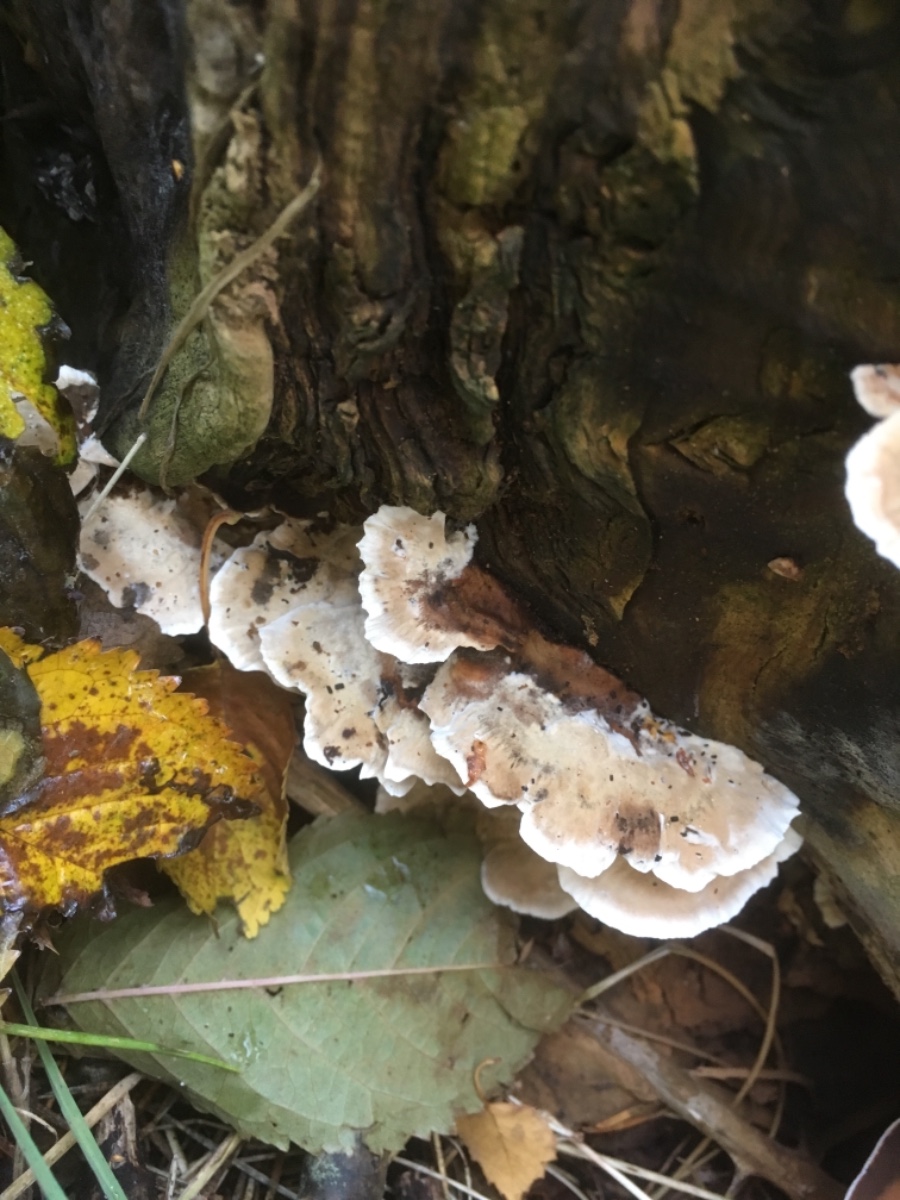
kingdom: Fungi
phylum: Basidiomycota
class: Agaricomycetes
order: Polyporales
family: Phanerochaetaceae
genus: Bjerkandera
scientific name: Bjerkandera
